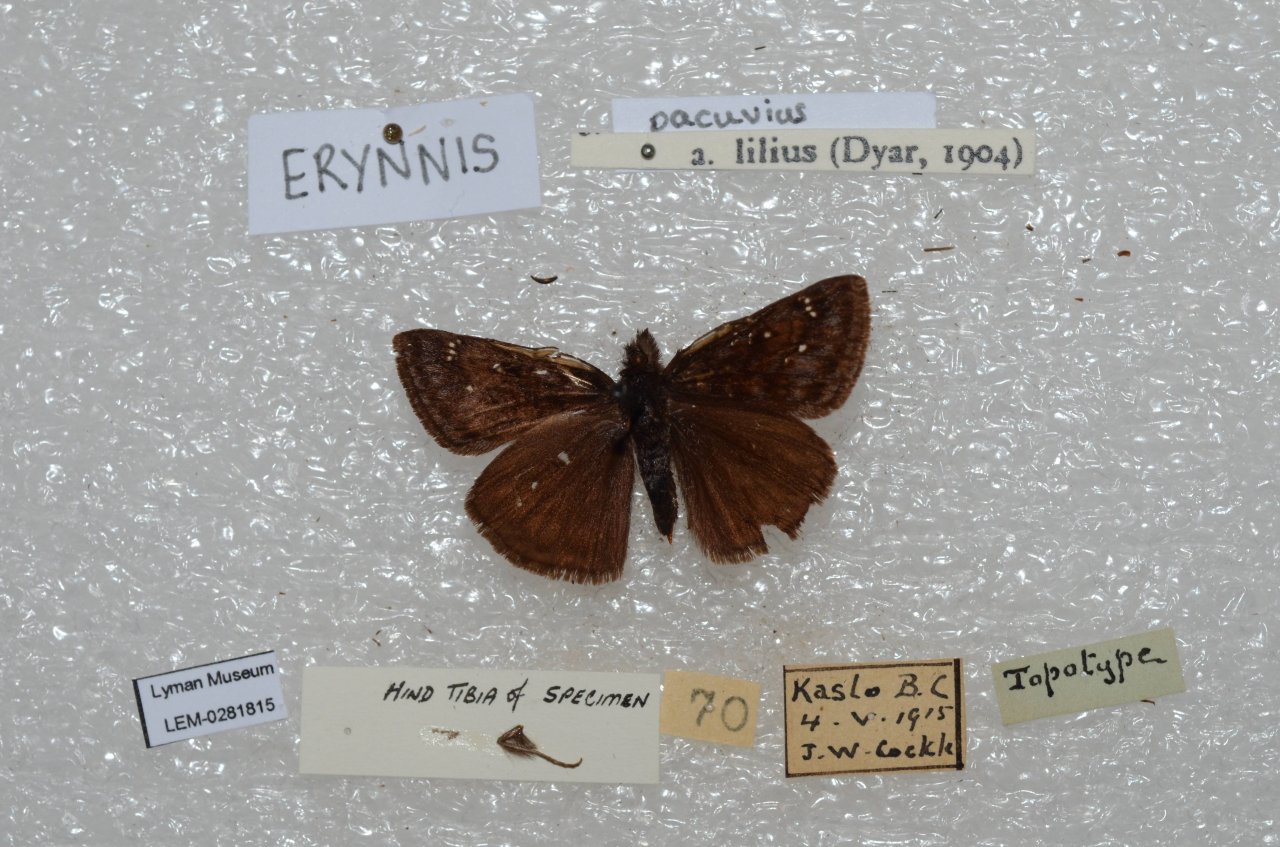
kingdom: Animalia
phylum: Arthropoda
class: Insecta
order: Lepidoptera
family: Hesperiidae
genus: Erynnis
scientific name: Erynnis pacuvius
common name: Pacuvius Duskywing
